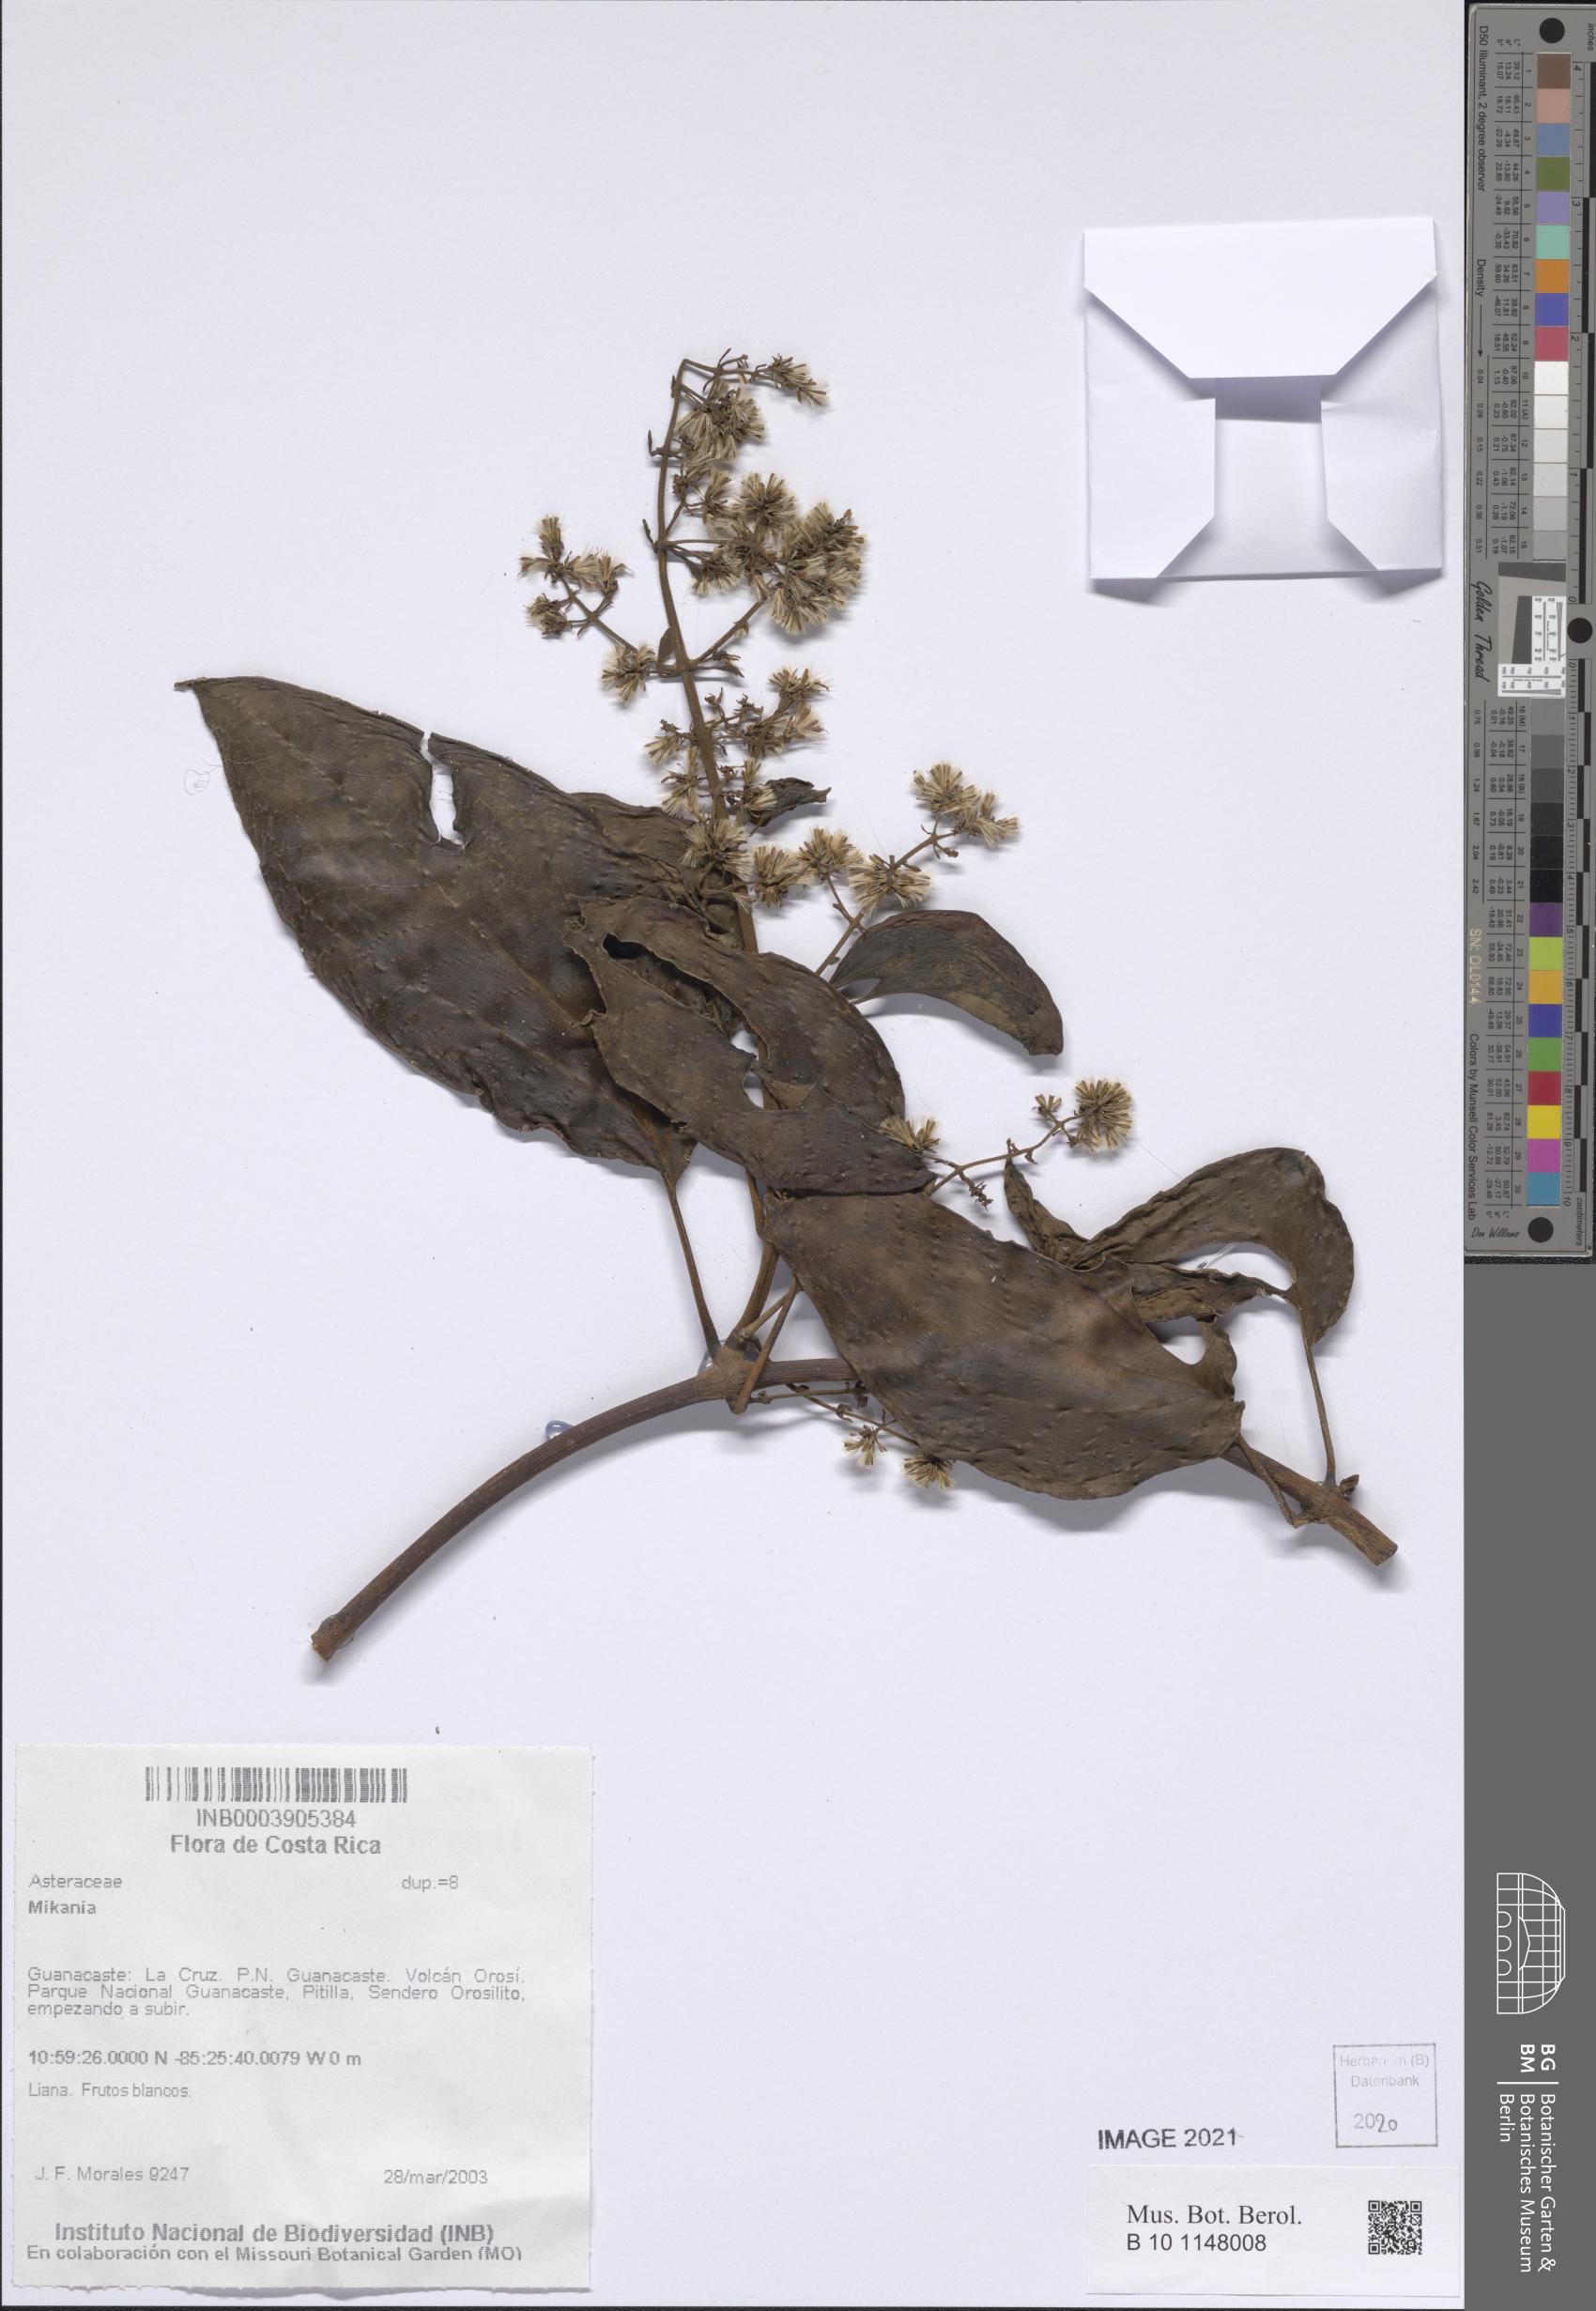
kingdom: Plantae
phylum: Tracheophyta
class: Magnoliopsida
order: Asterales
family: Asteraceae
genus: Mikania
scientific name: Mikania
